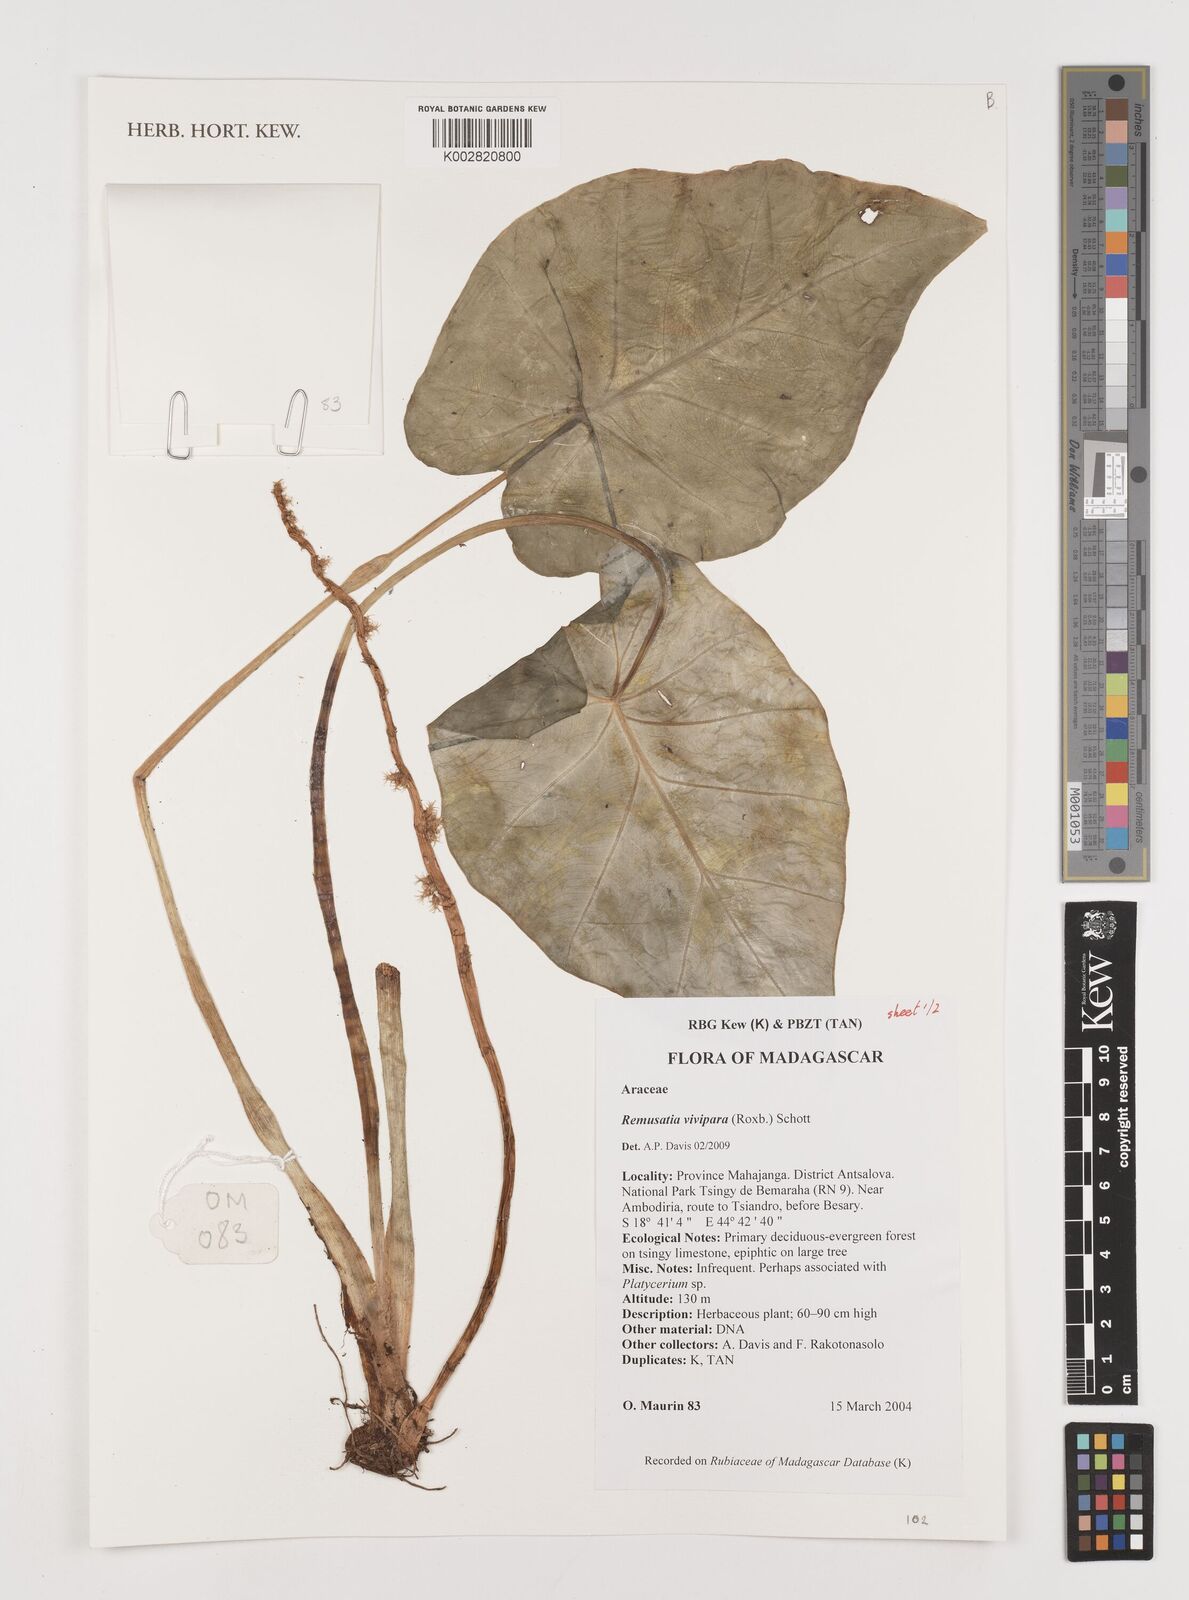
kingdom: Plantae
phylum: Tracheophyta
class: Liliopsida
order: Alismatales
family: Araceae
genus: Remusatia
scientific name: Remusatia vivipara
